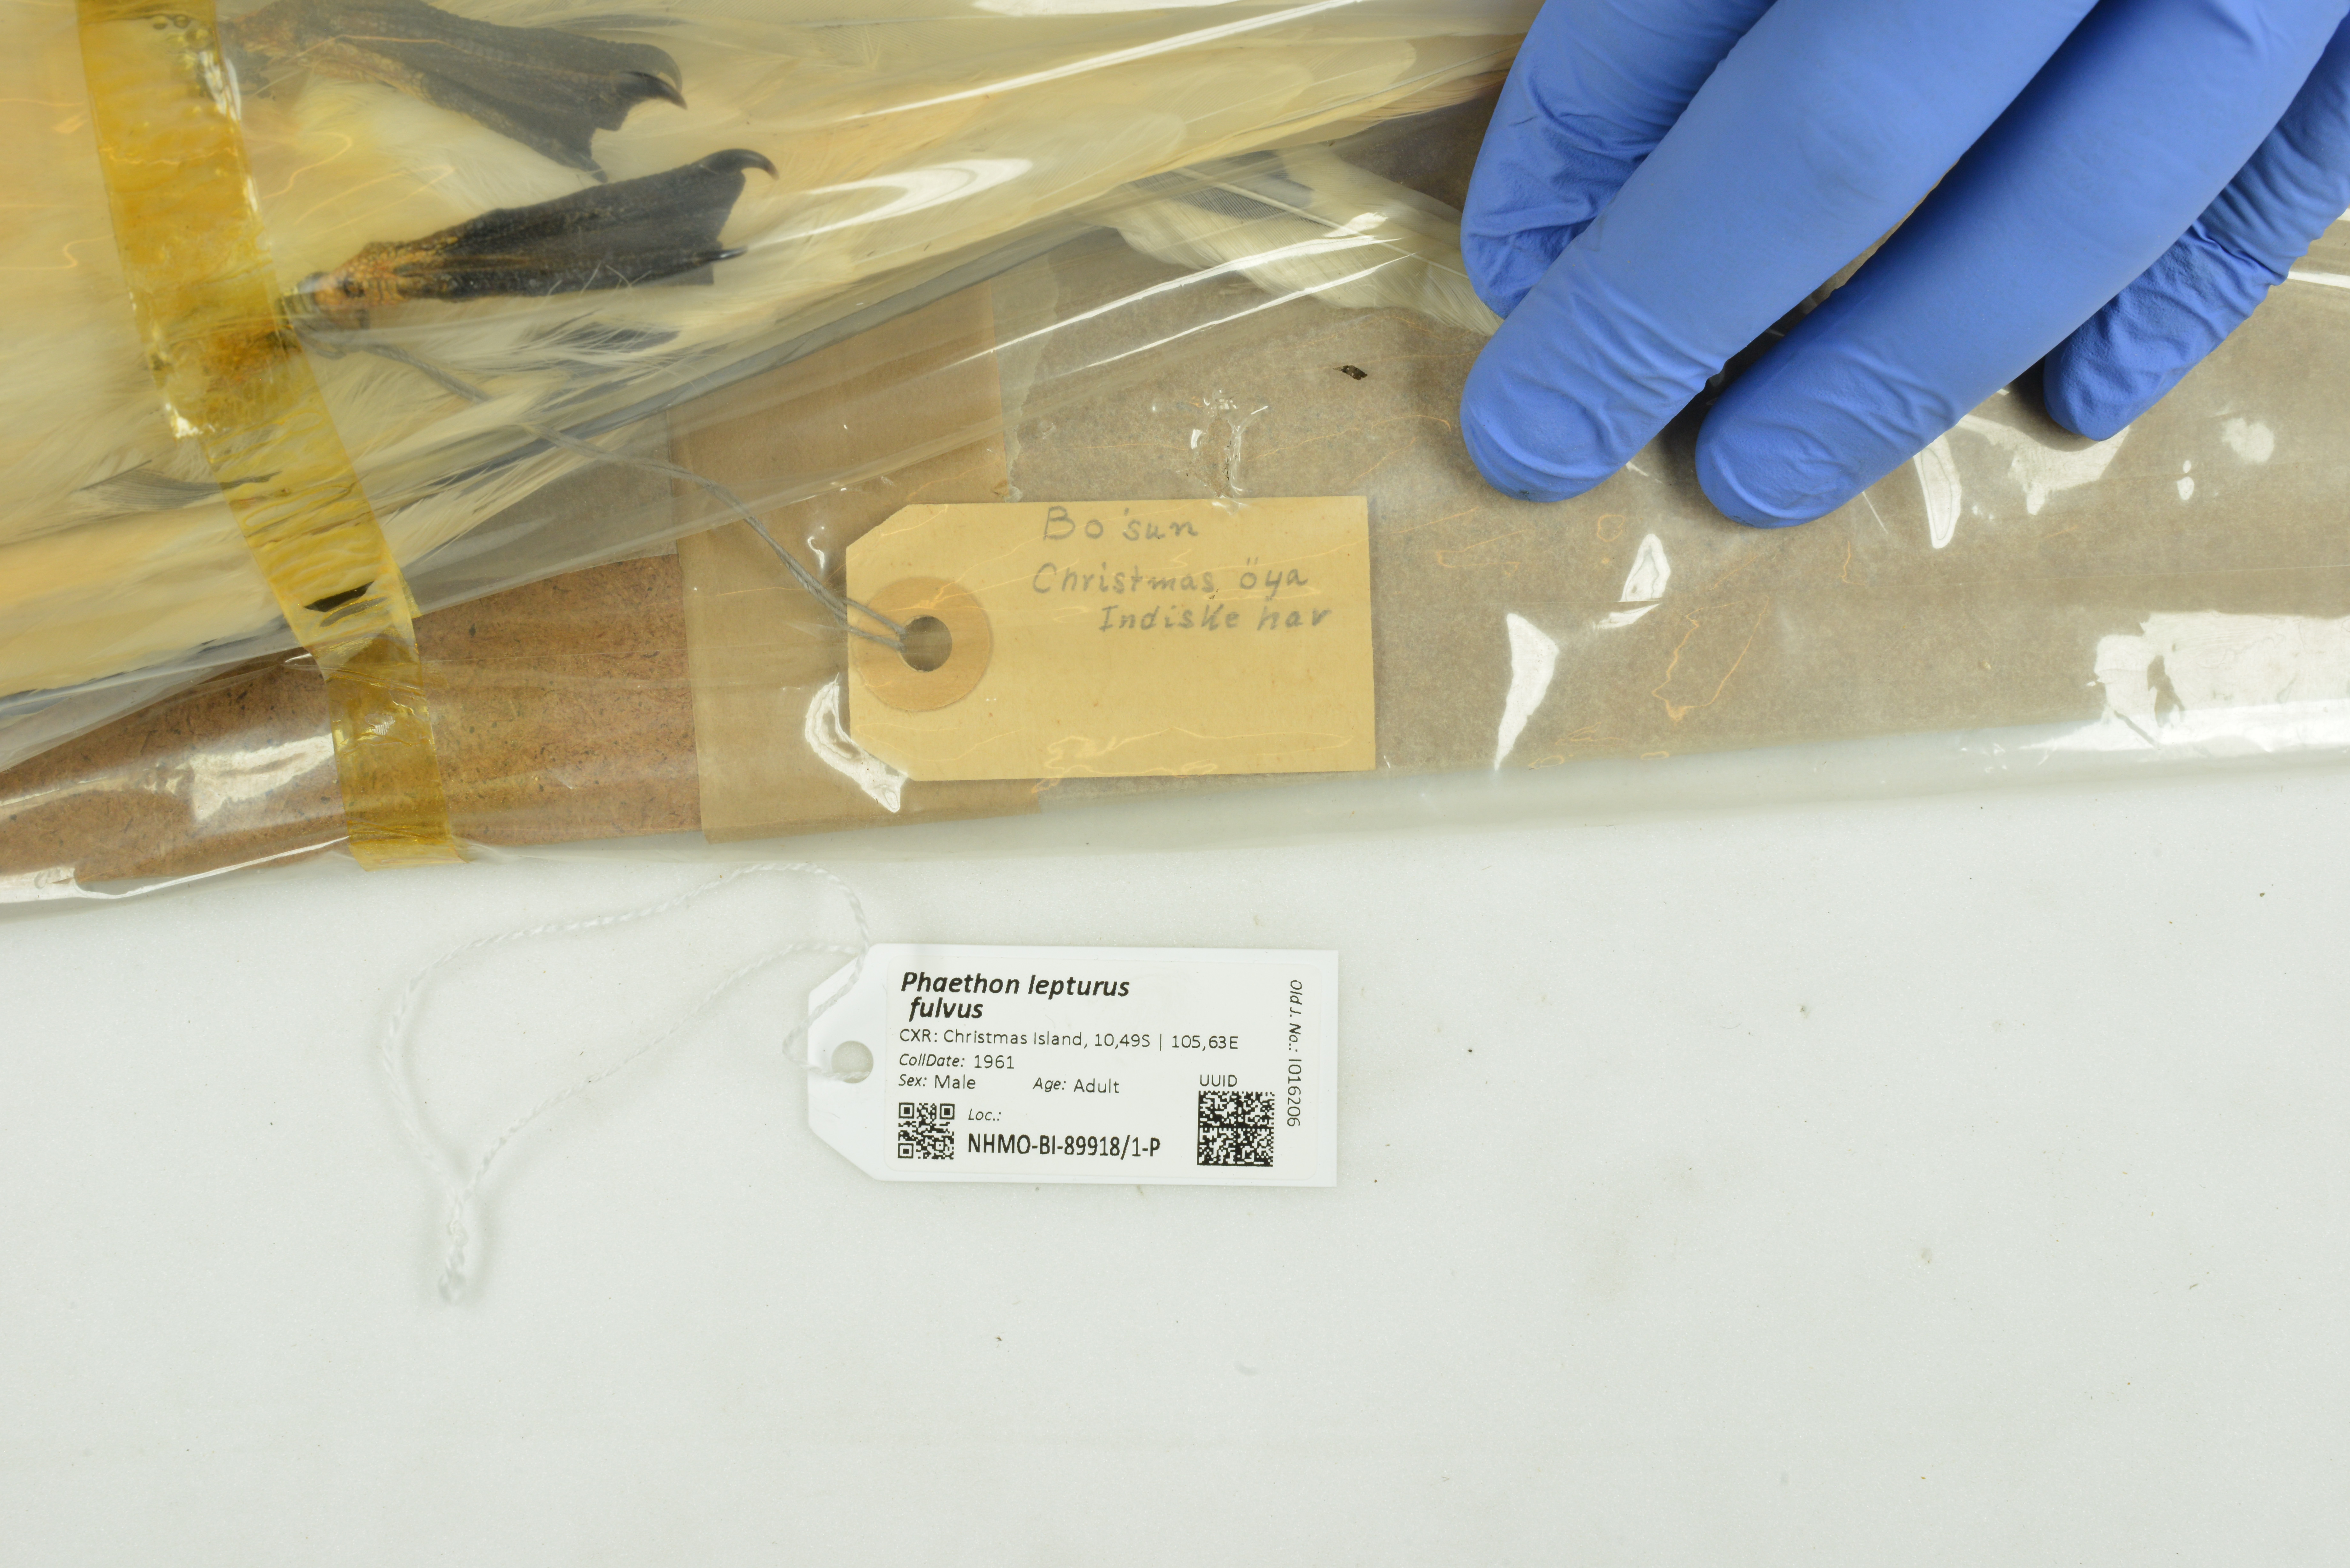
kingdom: Animalia
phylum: Chordata
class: Aves
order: Phaethontiformes
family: Phaethontidae
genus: Phaethon
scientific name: Phaethon lepturus
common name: White-tailed tropicbird
